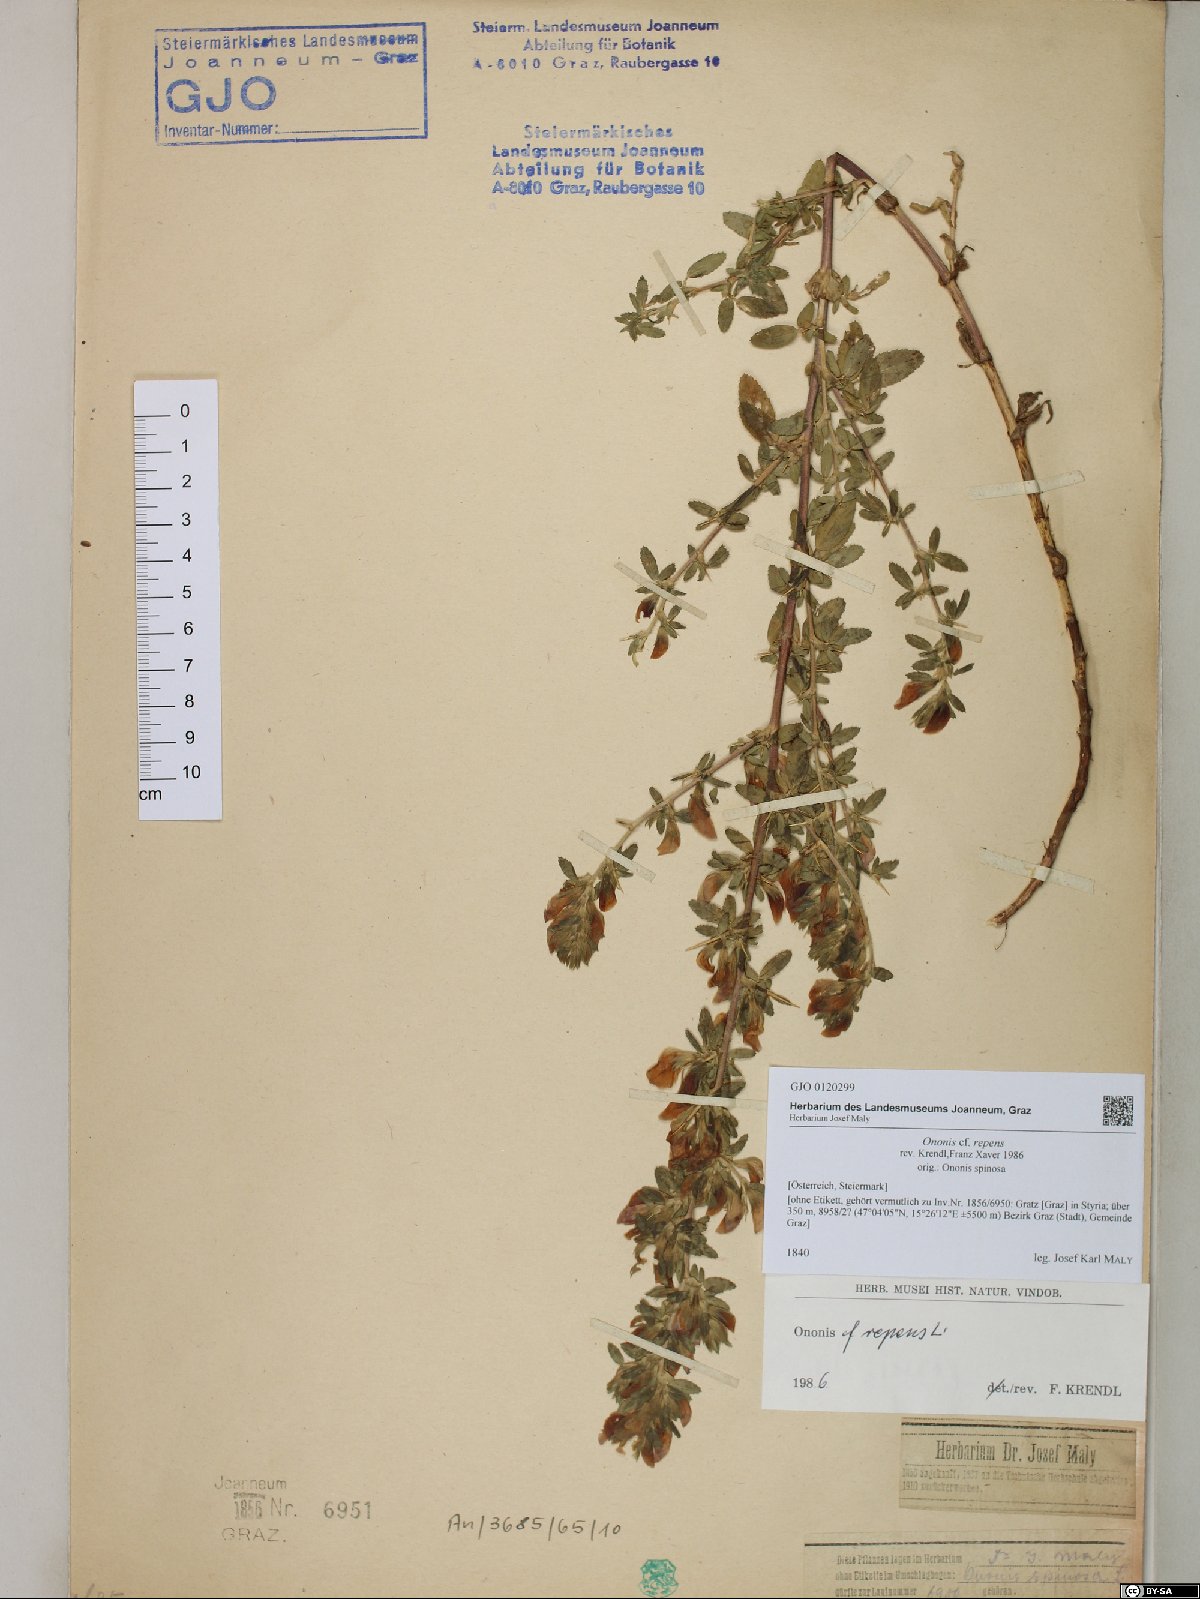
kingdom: Plantae
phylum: Tracheophyta
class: Magnoliopsida
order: Fabales
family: Fabaceae
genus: Ononis
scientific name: Ononis spinosa
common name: Spiny restharrow
